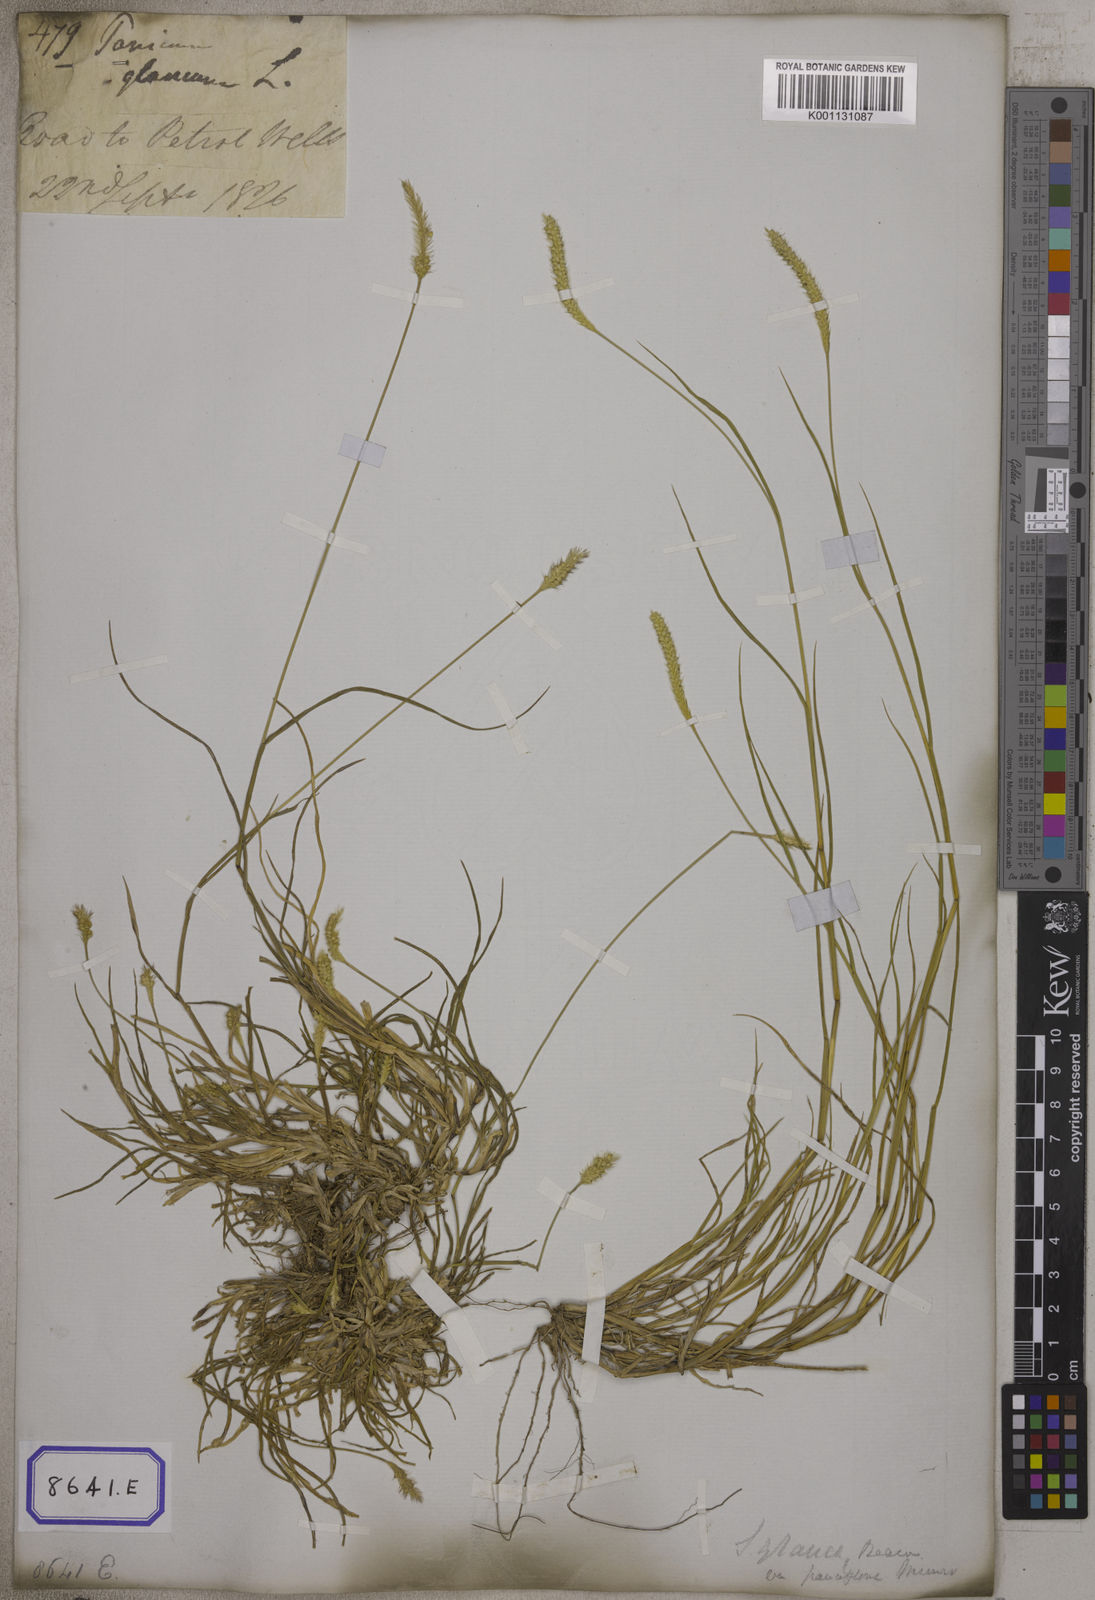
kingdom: Plantae
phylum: Tracheophyta
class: Liliopsida
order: Poales
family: Poaceae
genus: Setaria
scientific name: Setaria parviflora
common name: Knotroot bristle-grass
